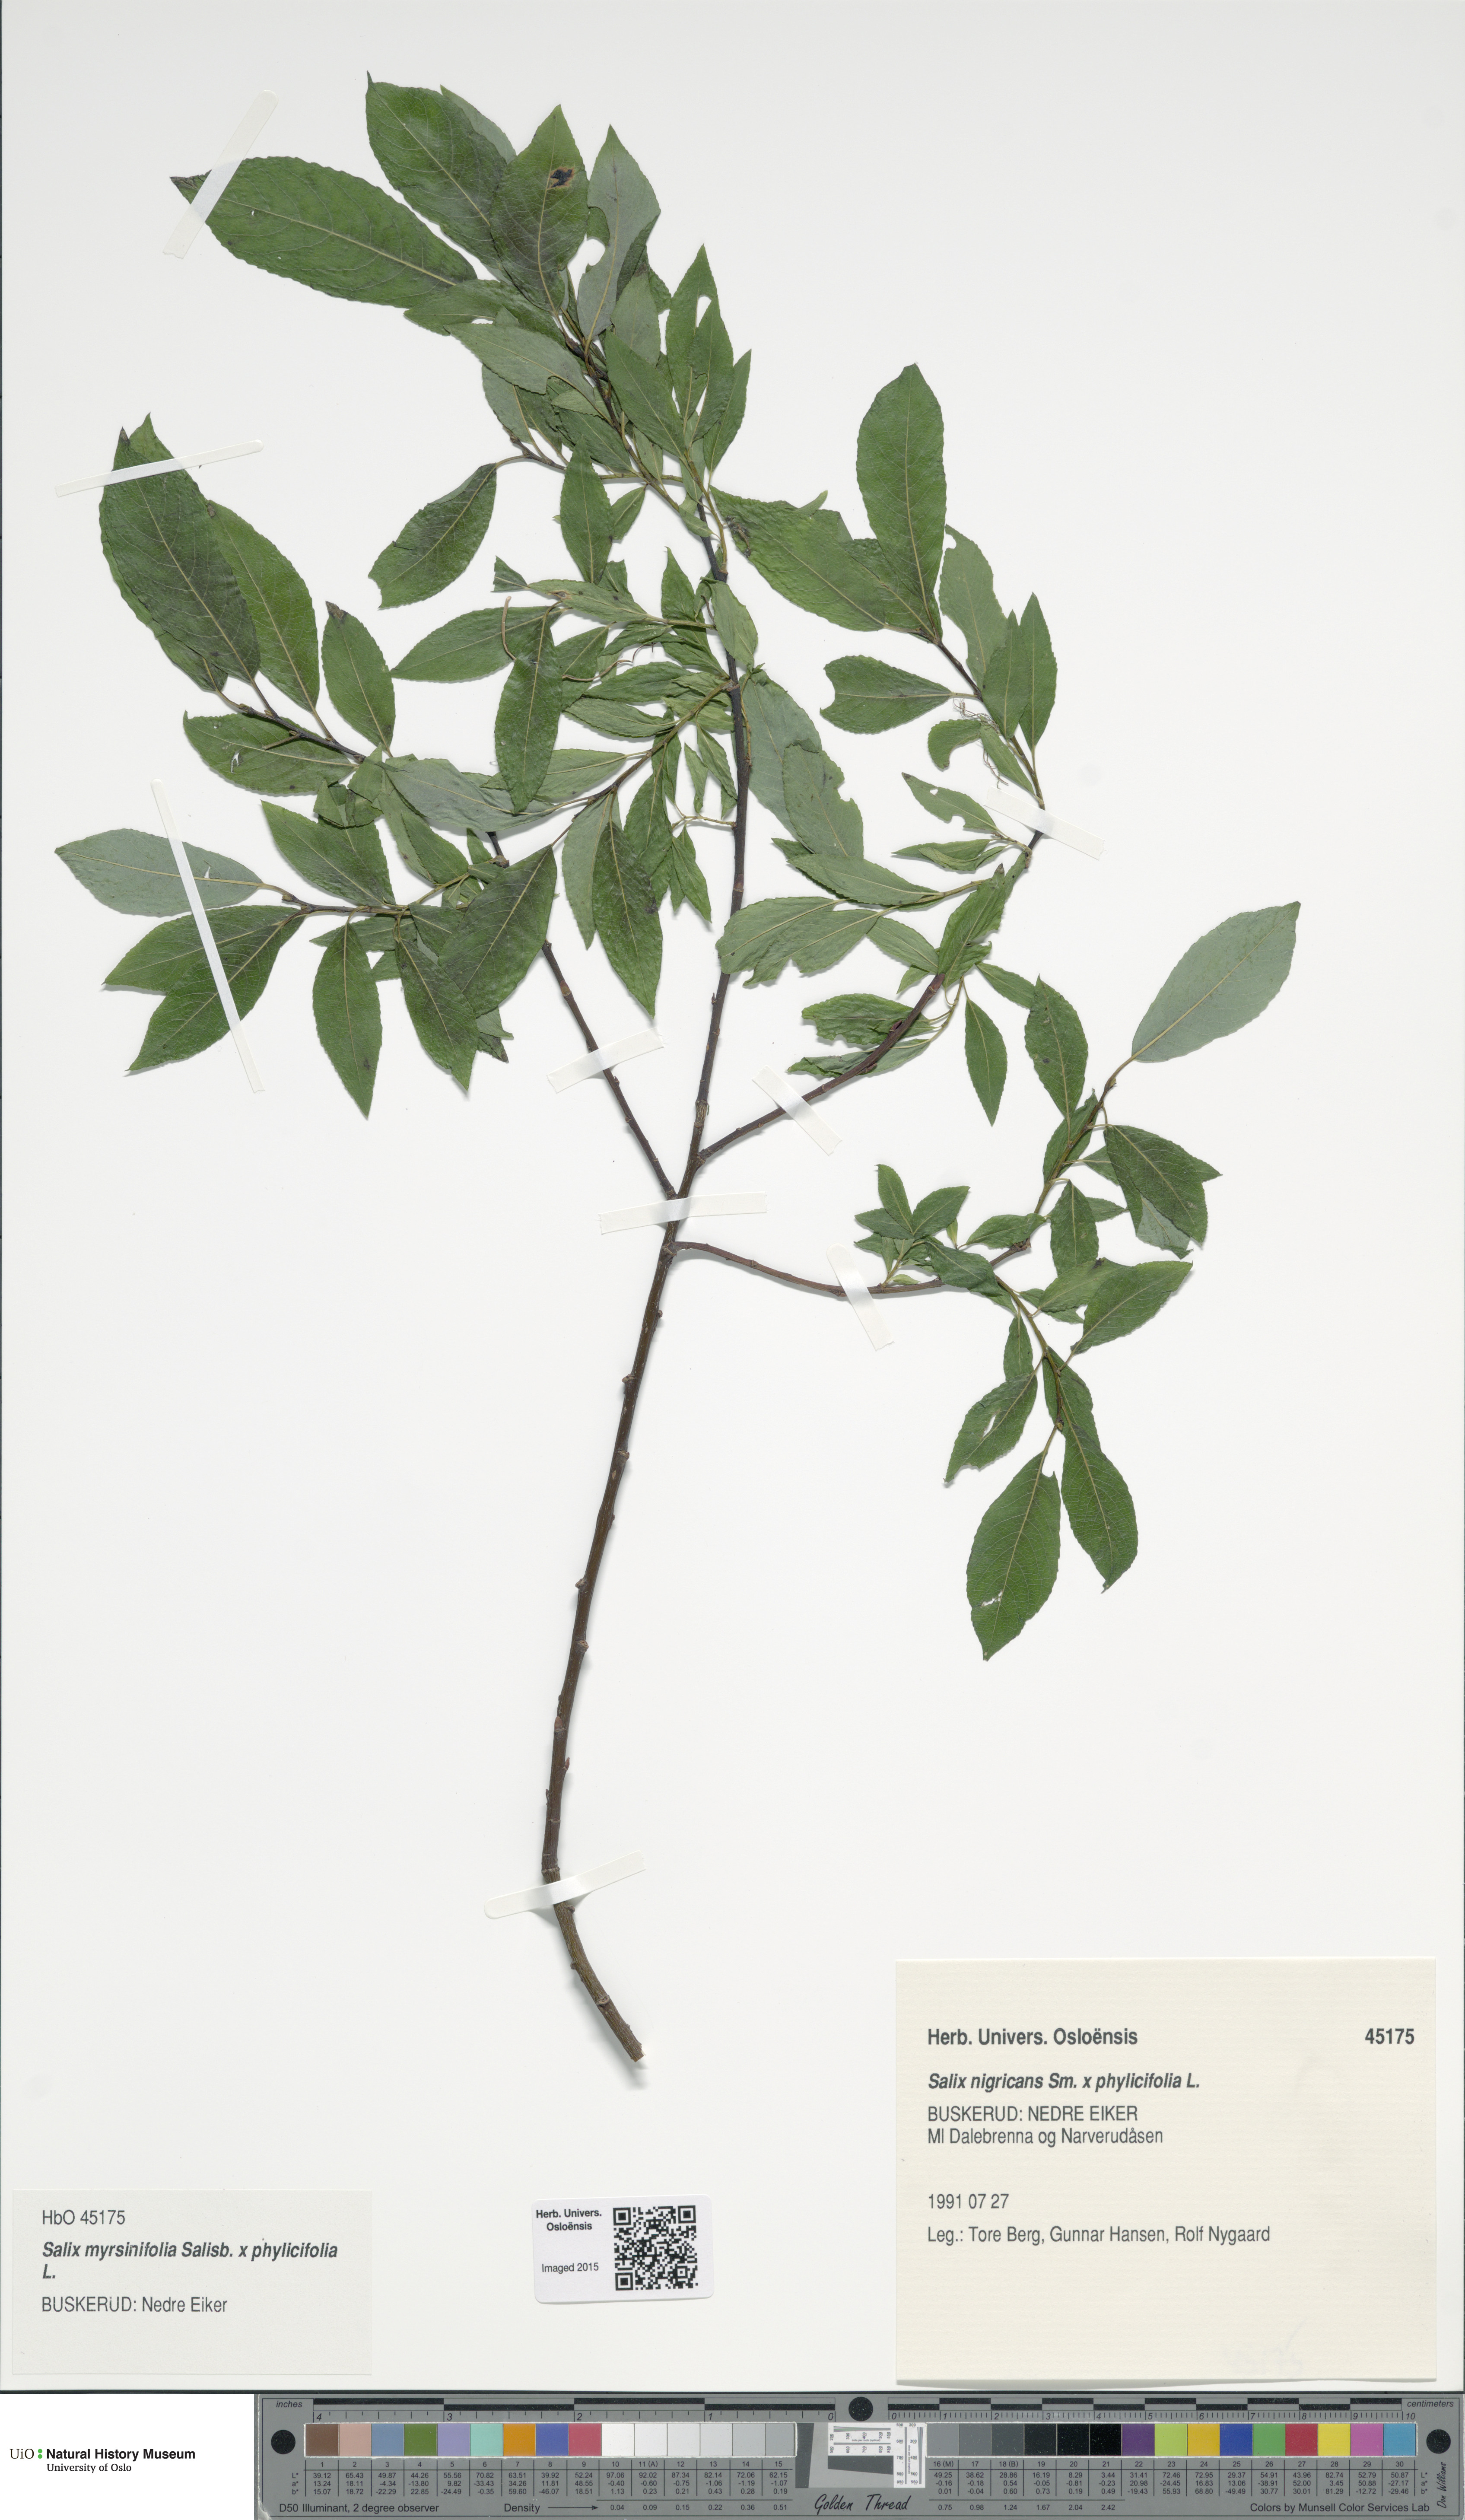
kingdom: Plantae
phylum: Tracheophyta
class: Magnoliopsida
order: Malpighiales
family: Salicaceae
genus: Salix
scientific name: Salix
